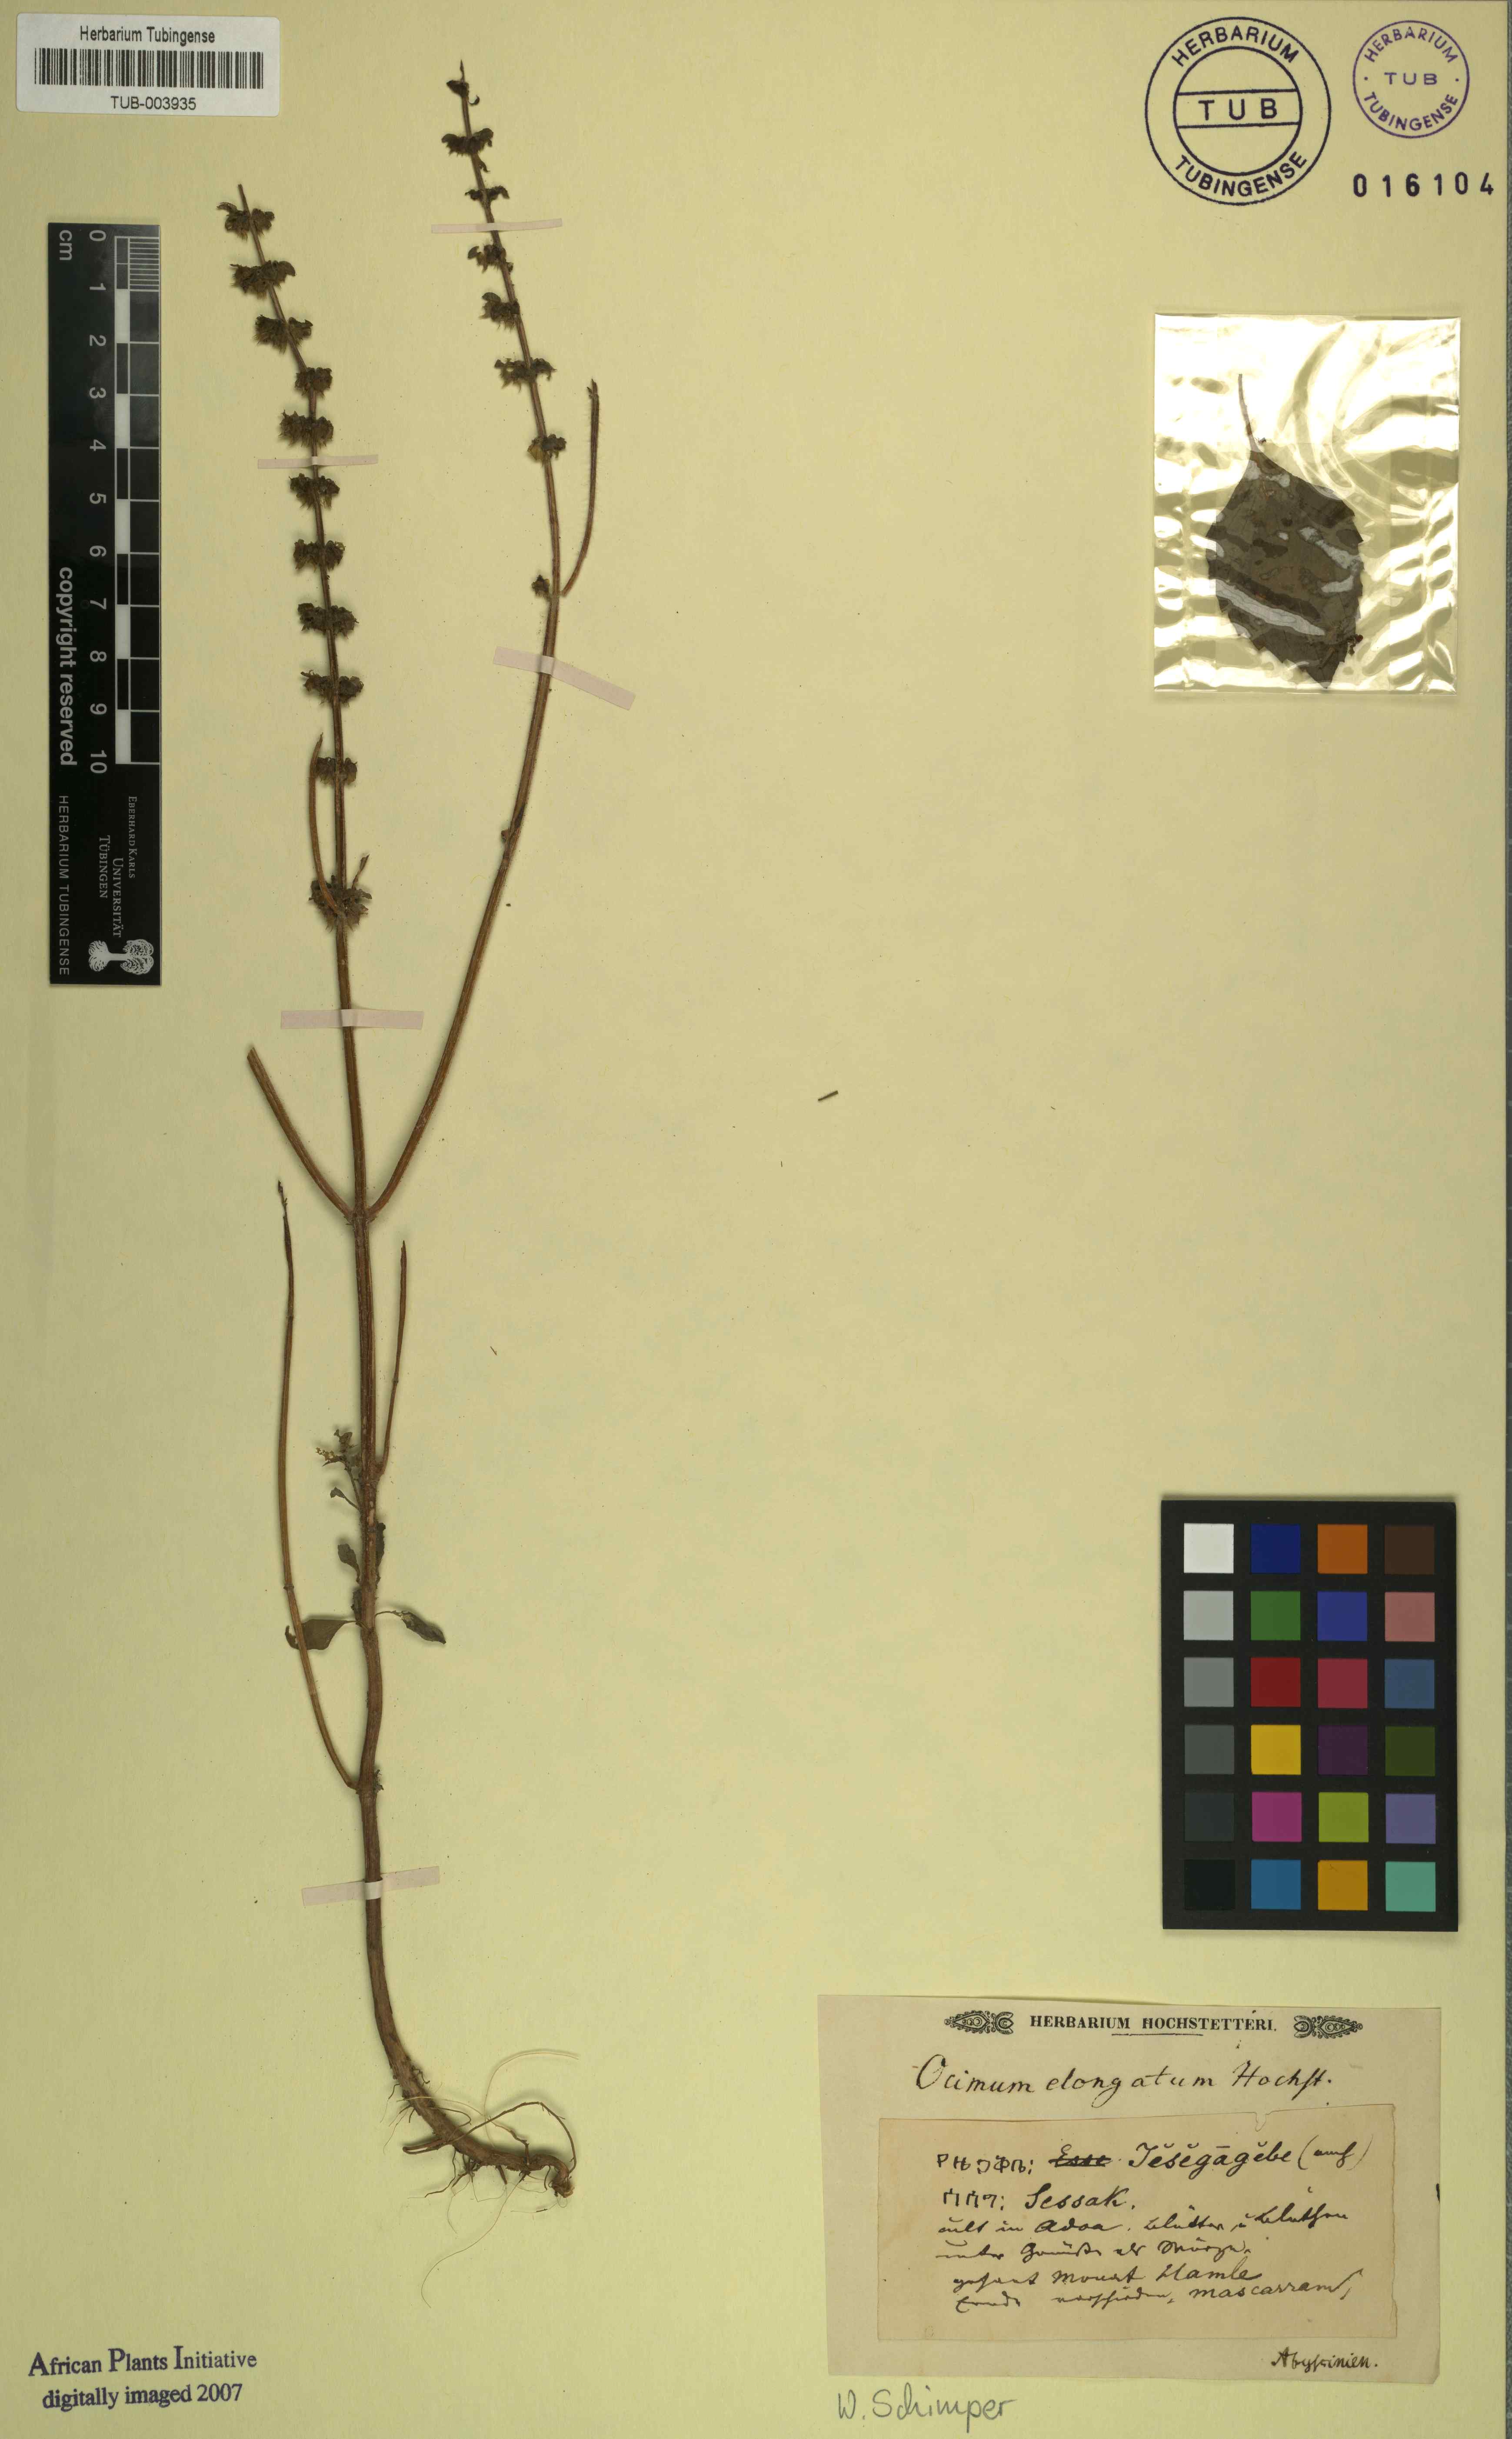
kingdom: Plantae
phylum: Tracheophyta
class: Magnoliopsida
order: Lamiales
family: Lamiaceae
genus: Ocimum
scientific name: Ocimum
